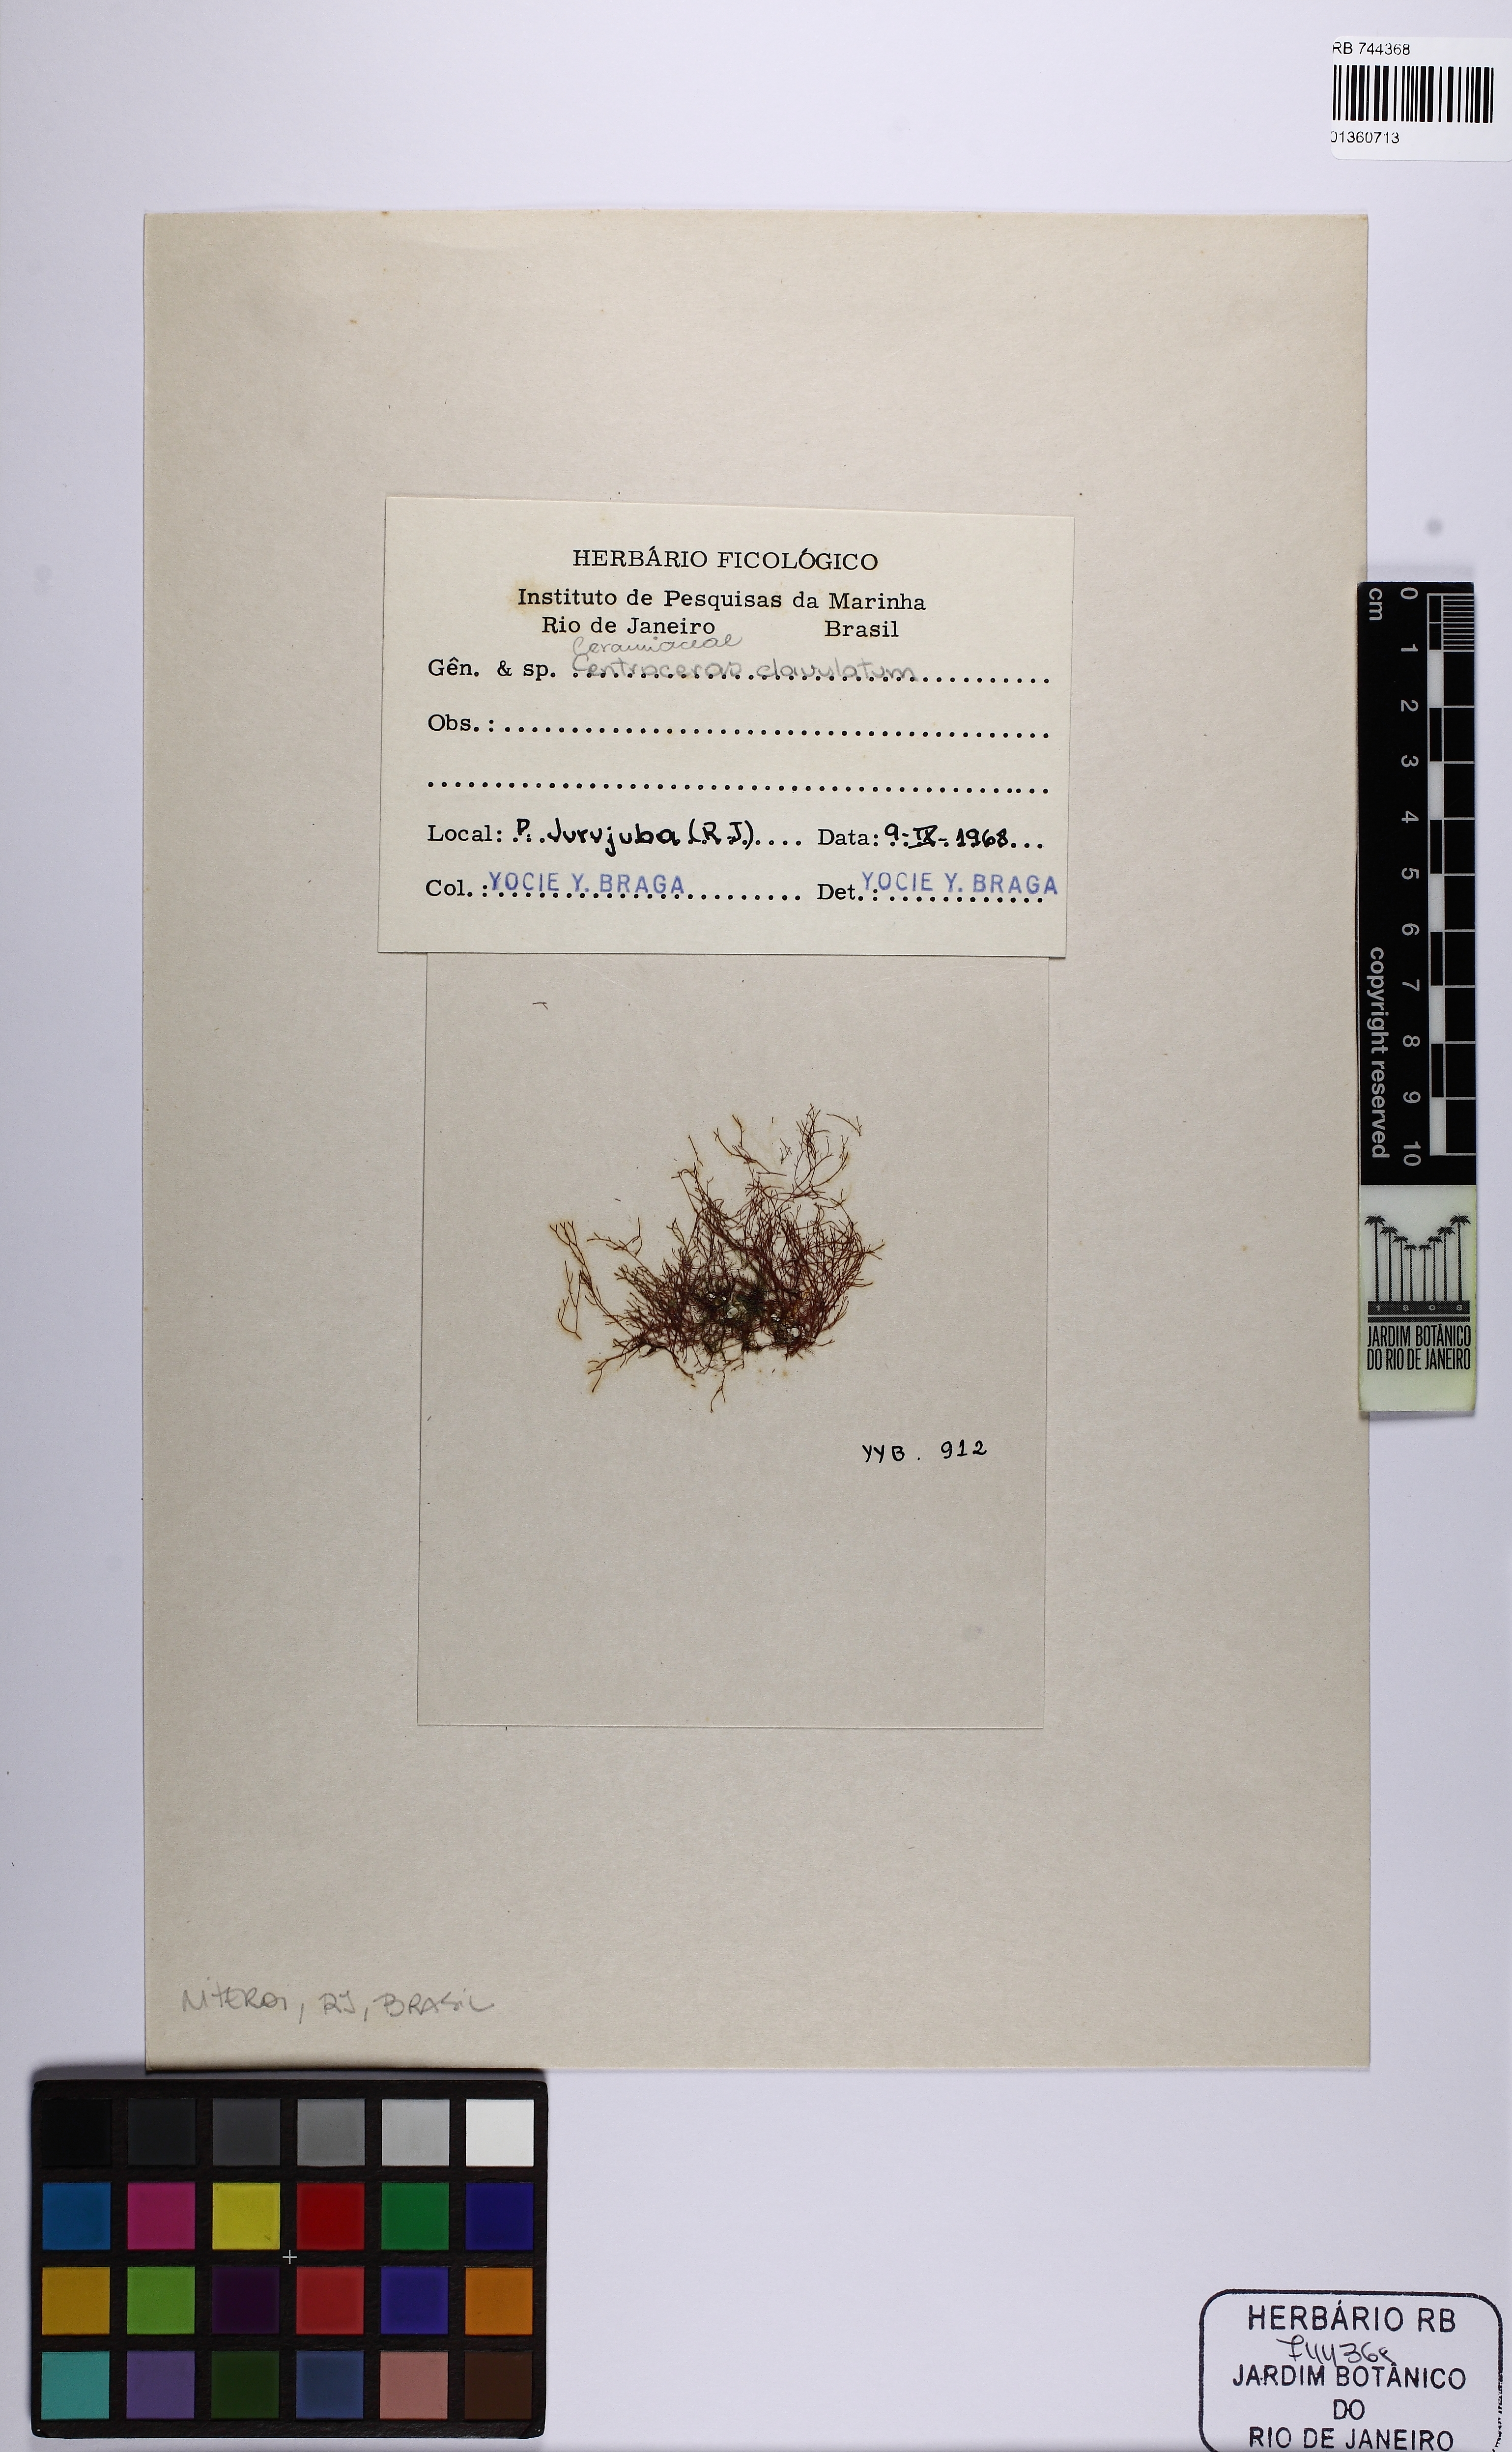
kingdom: Plantae
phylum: Rhodophyta
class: Florideophyceae
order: Ceramiales
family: Ceramiaceae
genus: Centroceras
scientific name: Centroceras clavulatum
